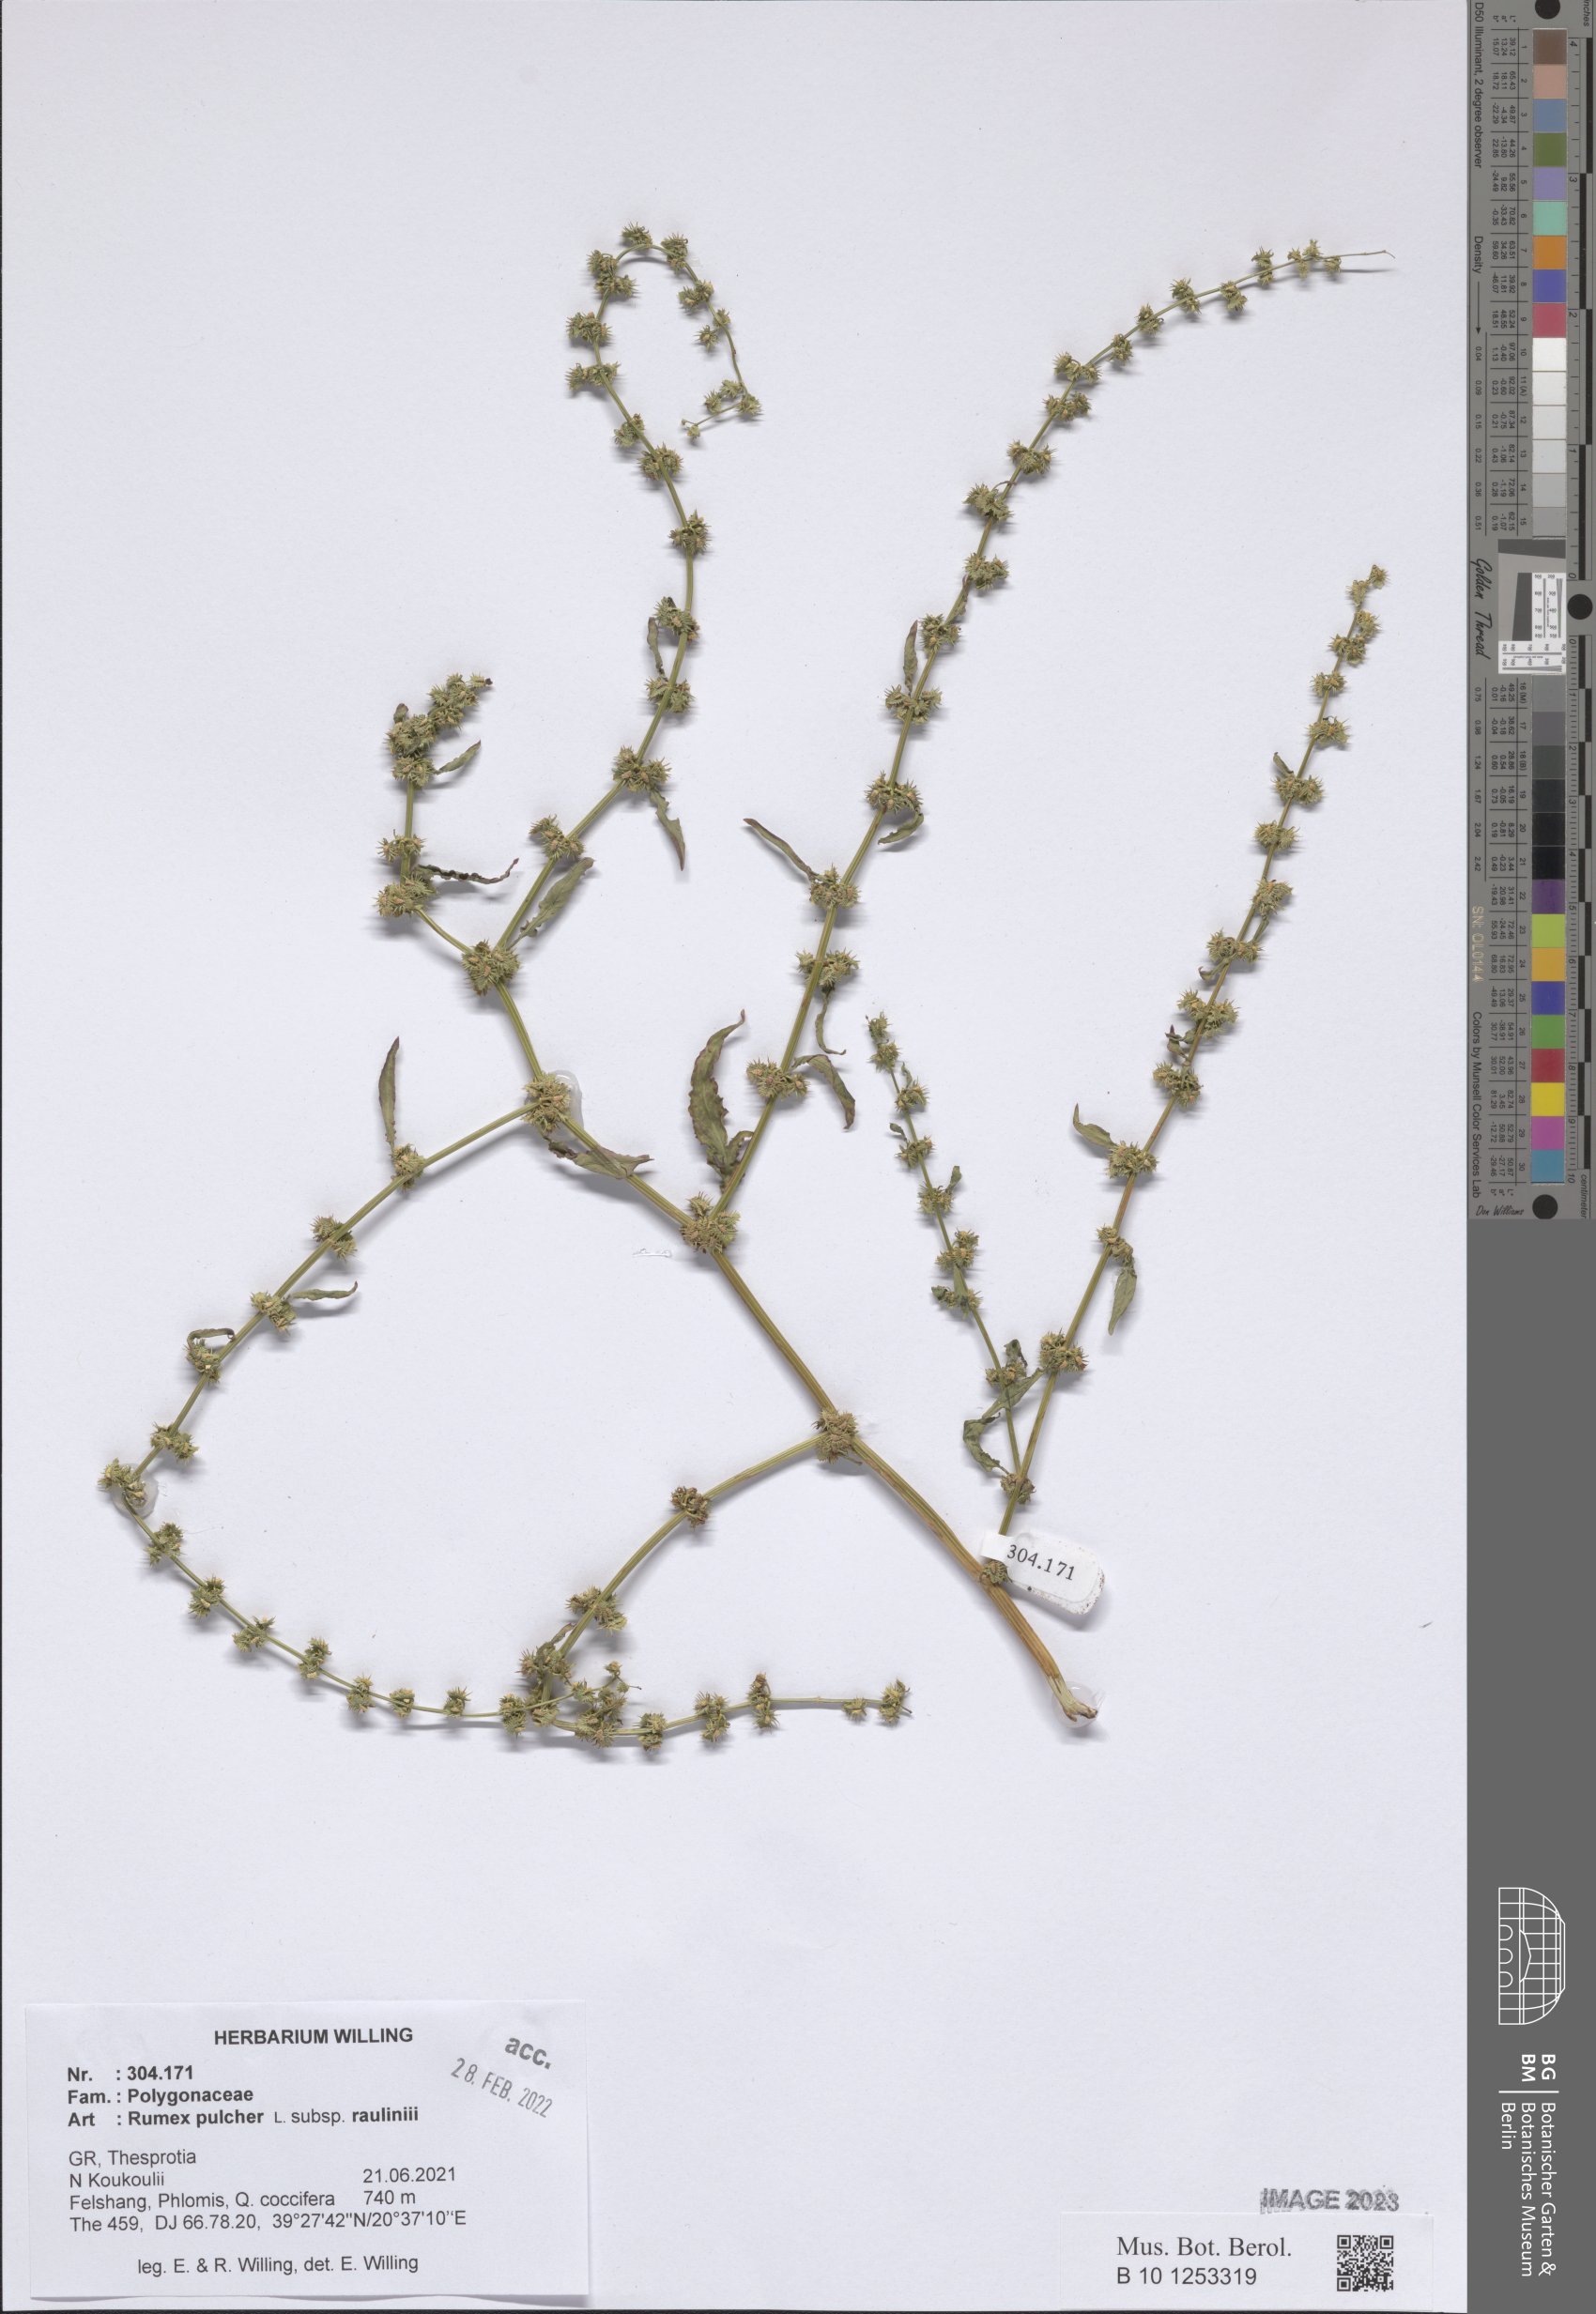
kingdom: Plantae
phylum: Tracheophyta
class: Magnoliopsida
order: Caryophyllales
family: Polygonaceae
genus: Rumex
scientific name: Rumex pulcher
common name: Fiddle dock
